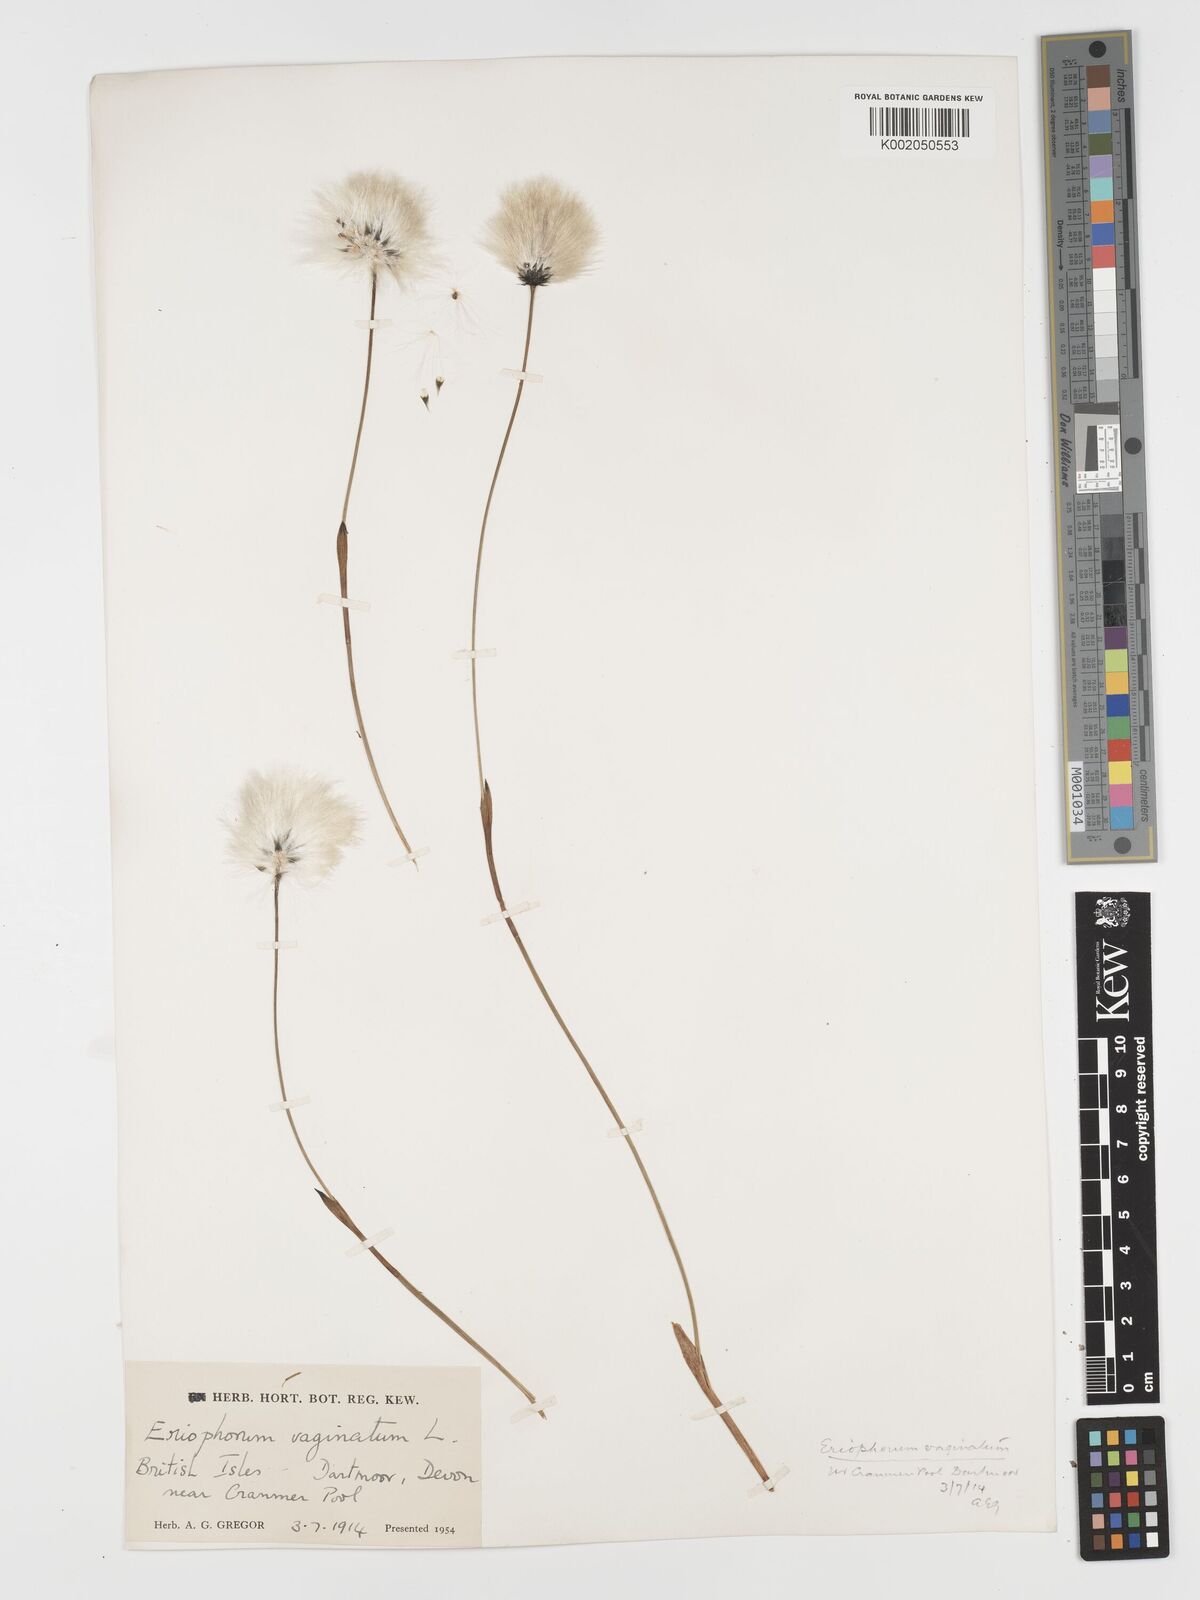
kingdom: Plantae
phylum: Tracheophyta
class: Liliopsida
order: Poales
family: Cyperaceae
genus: Eriophorum
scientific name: Eriophorum vaginatum
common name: Hare's-tail cottongrass
